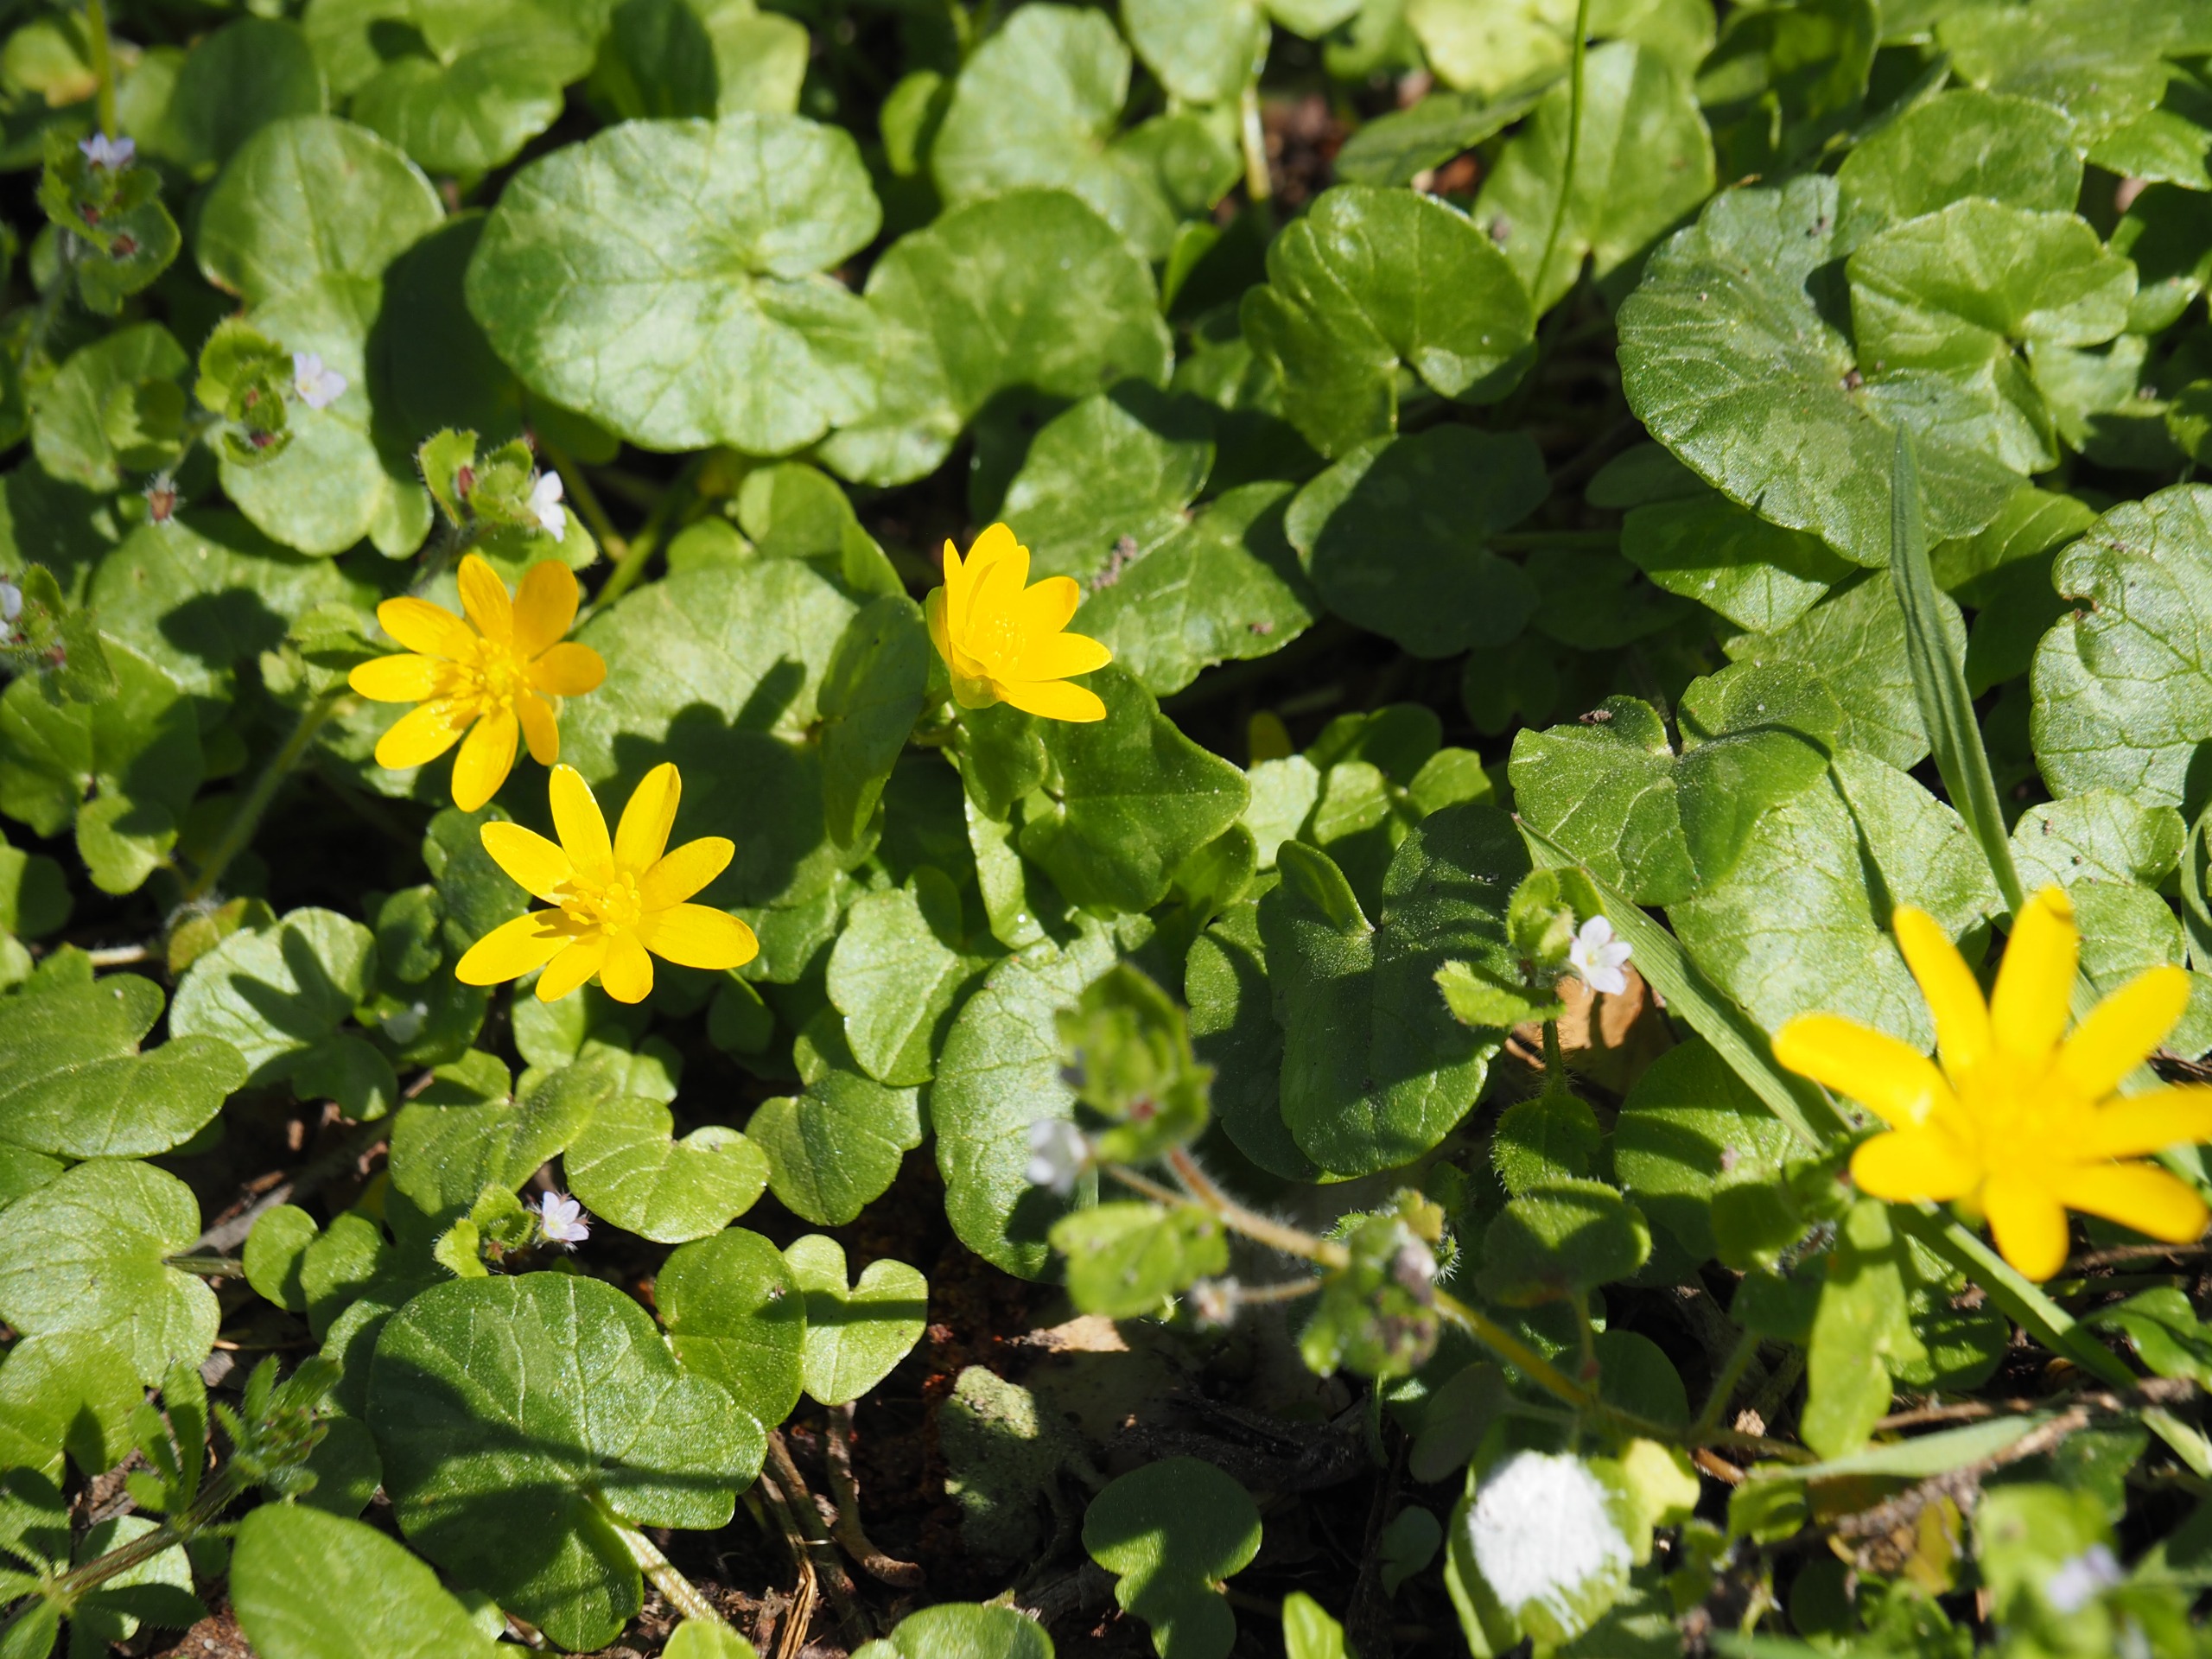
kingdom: Plantae
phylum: Tracheophyta
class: Magnoliopsida
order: Ranunculales
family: Ranunculaceae
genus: Ficaria
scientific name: Ficaria verna
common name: Vorterod
